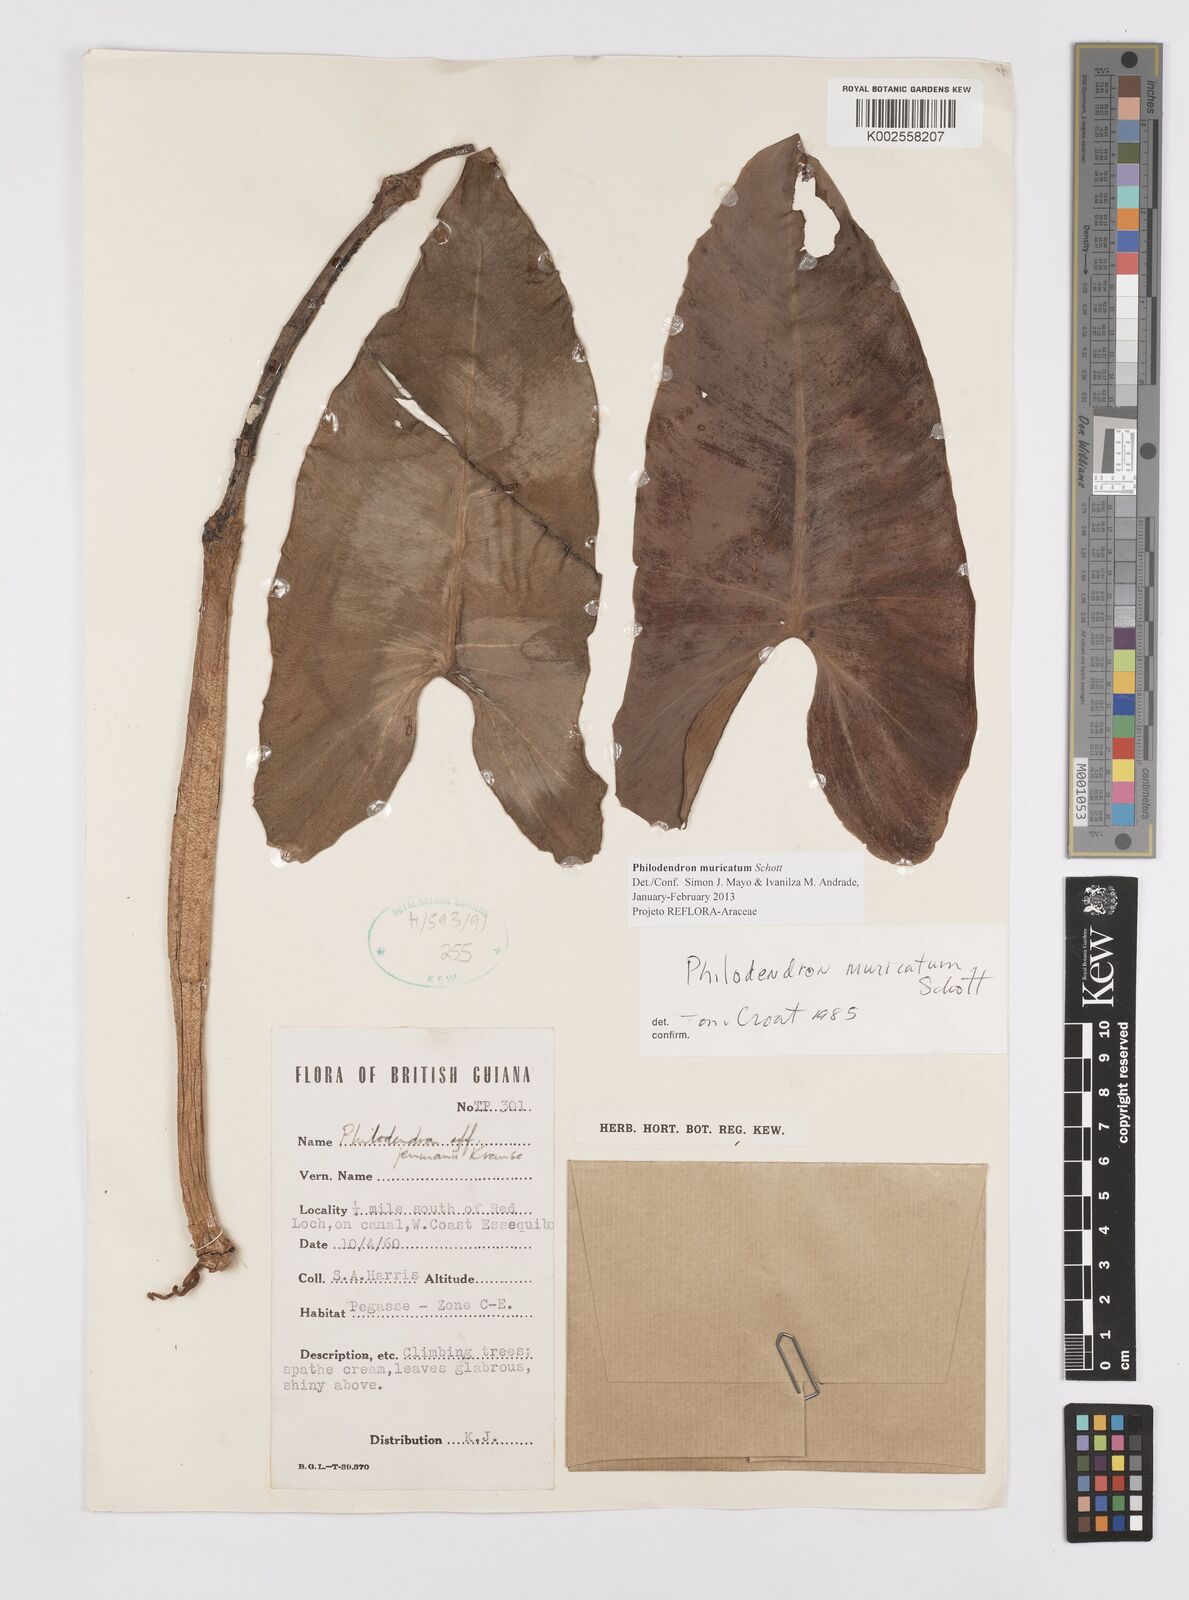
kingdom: Plantae
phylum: Tracheophyta
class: Liliopsida
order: Alismatales
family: Araceae
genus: Philodendron
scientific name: Philodendron muricatum
